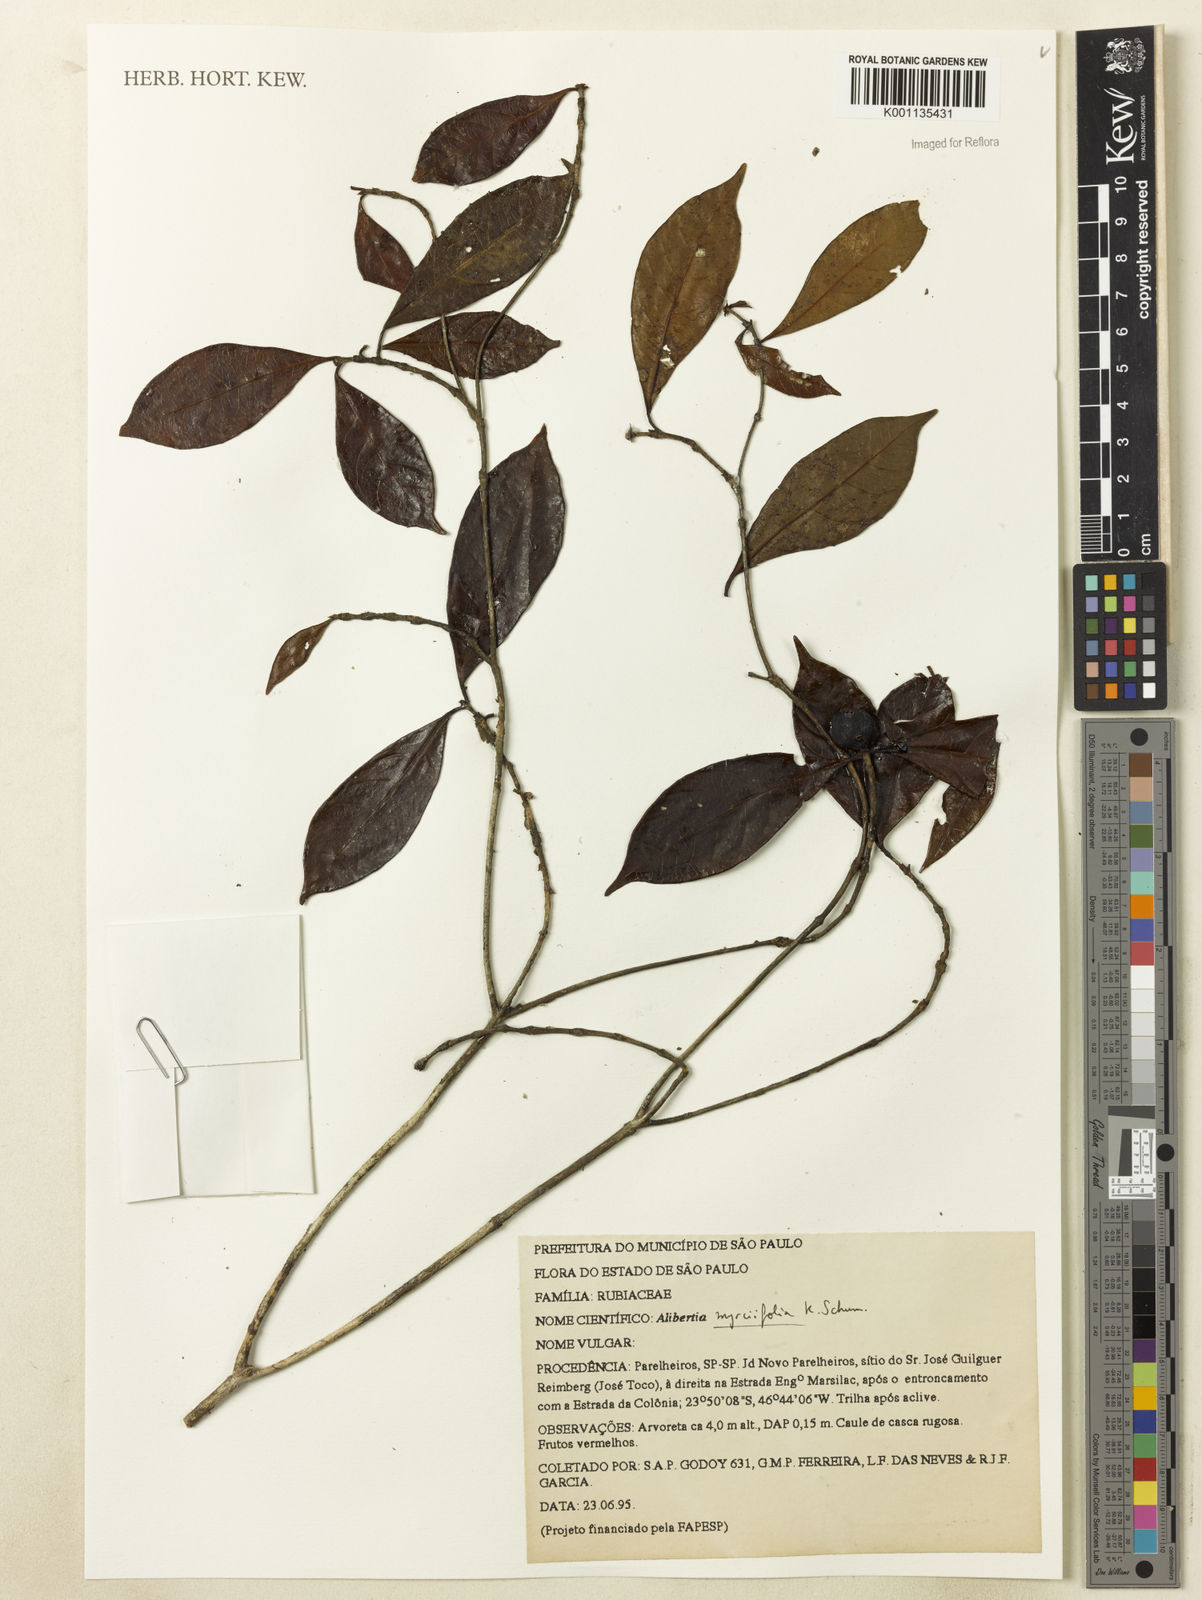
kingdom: Plantae
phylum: Tracheophyta
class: Magnoliopsida
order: Gentianales
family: Rubiaceae
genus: Cordiera
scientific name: Cordiera myrciifolia
